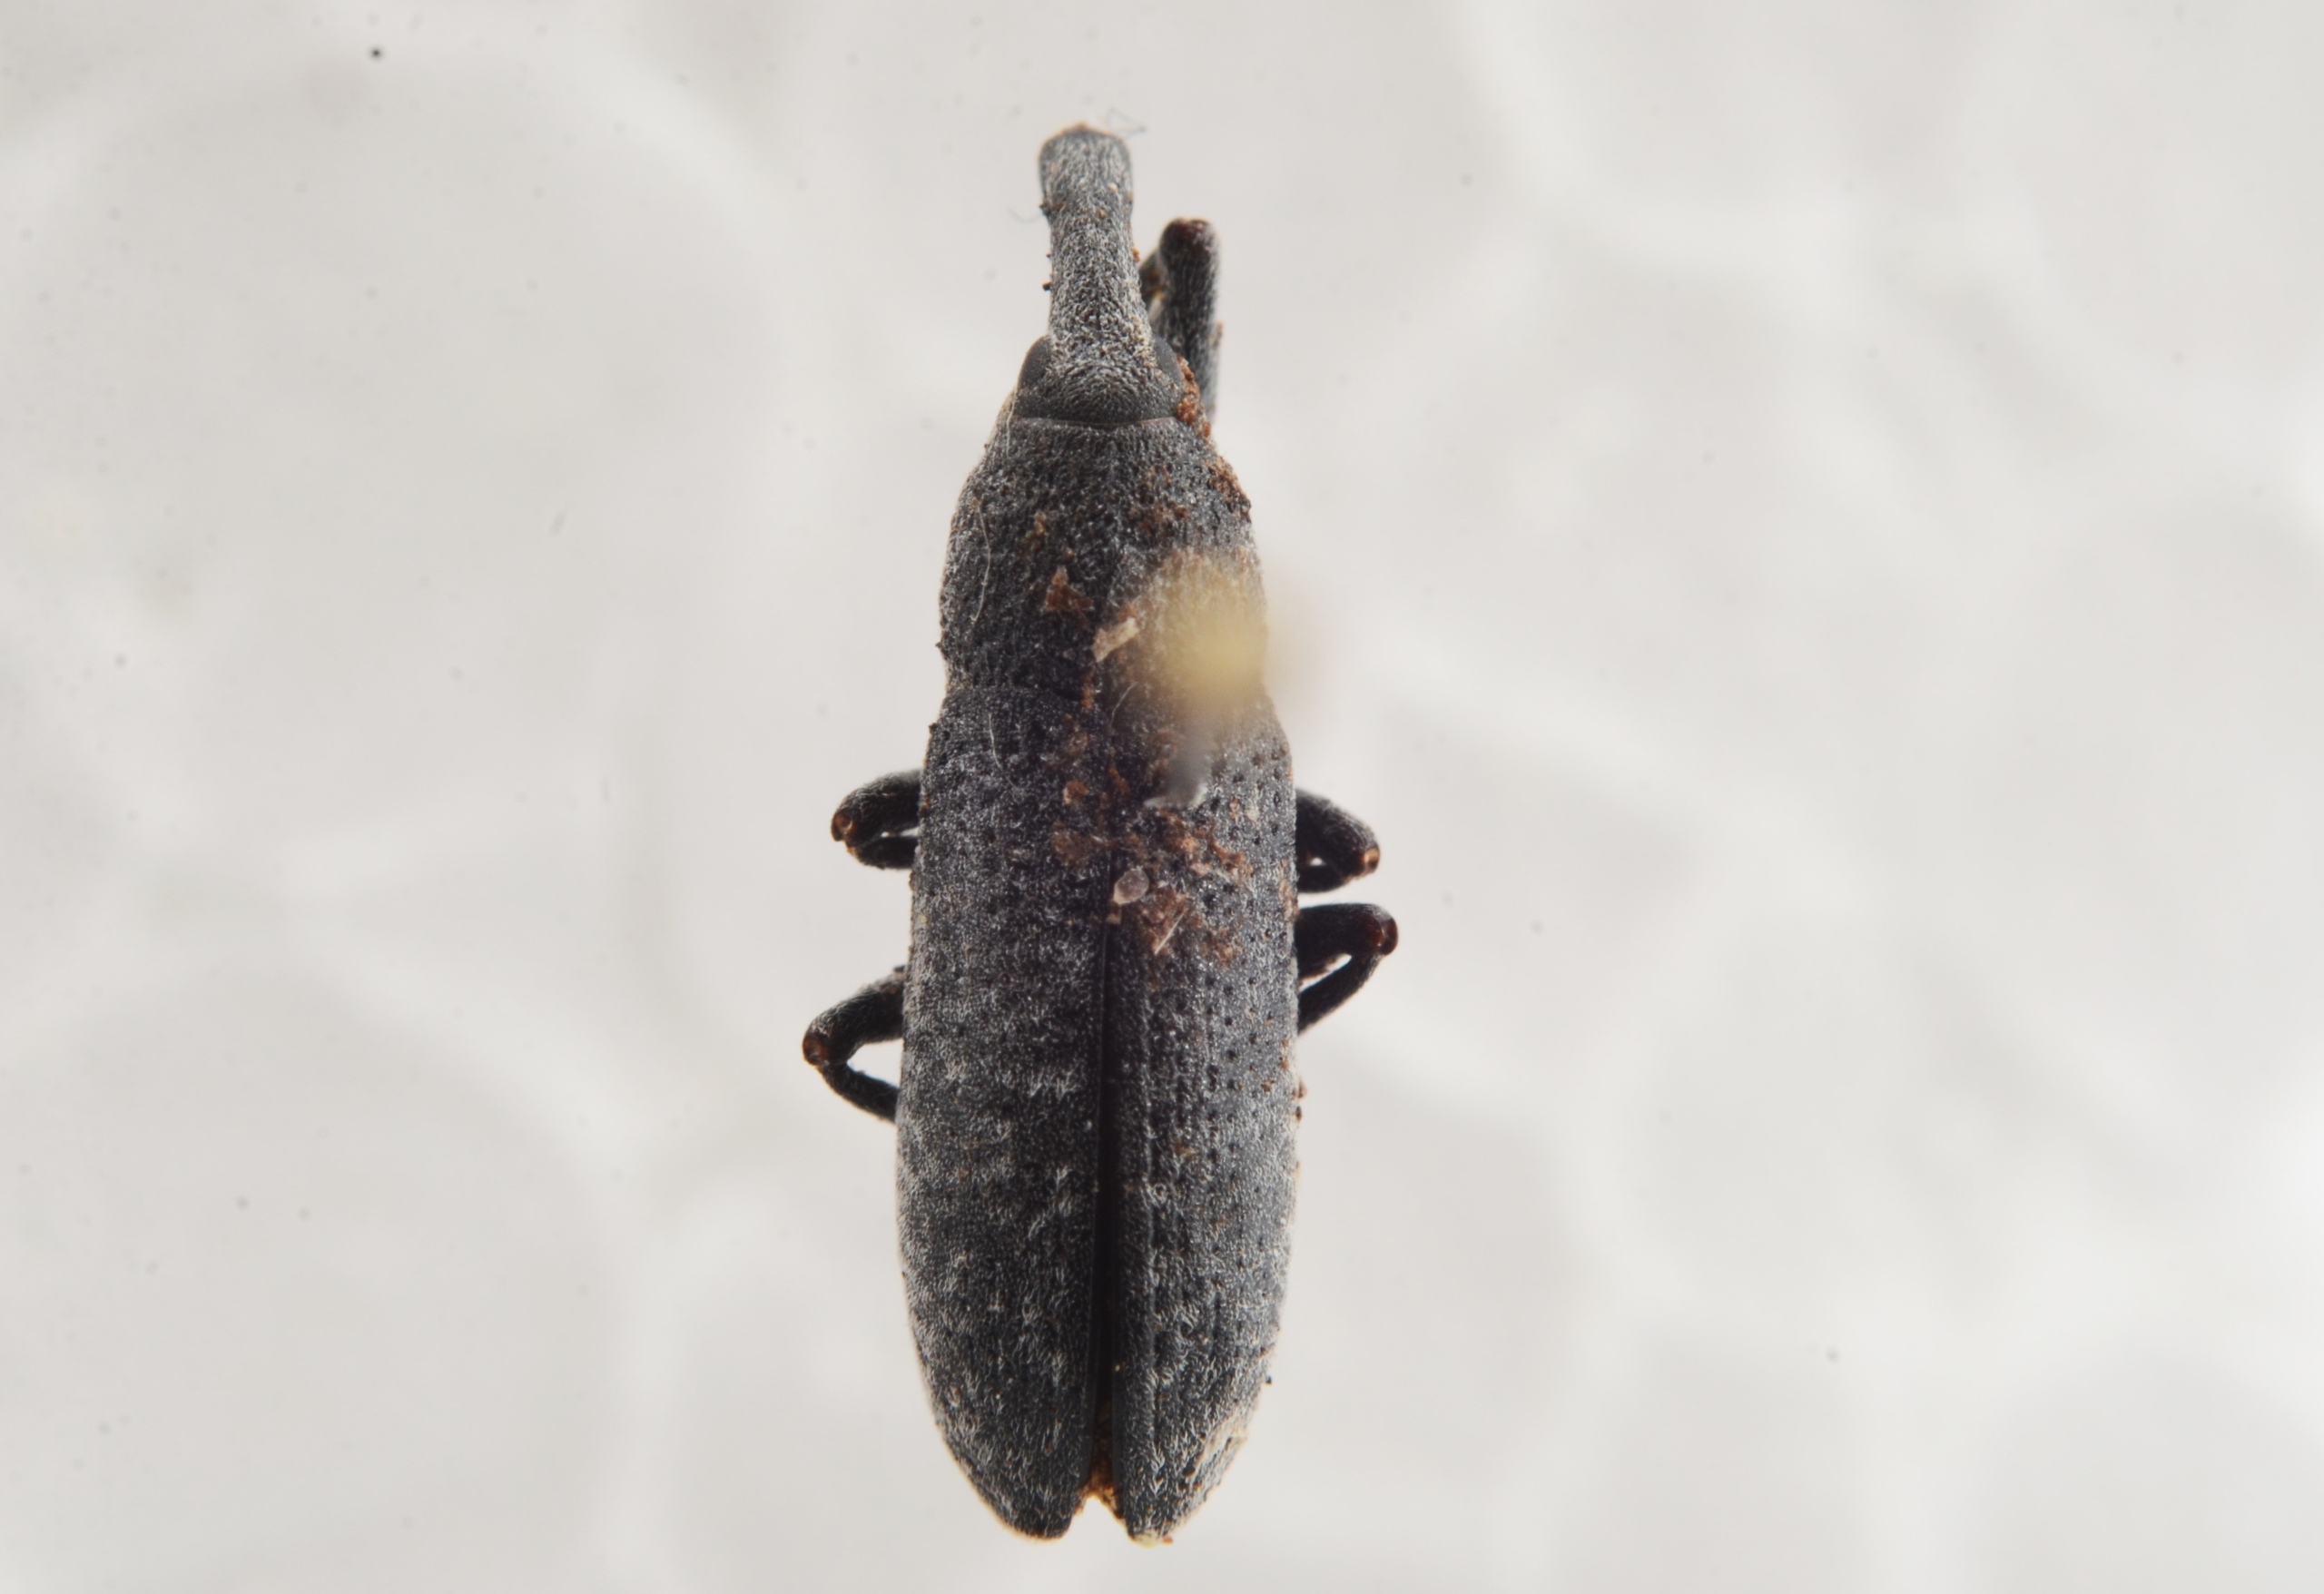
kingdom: Animalia
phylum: Arthropoda
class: Insecta
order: Coleoptera
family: Curculionidae
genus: Lixus
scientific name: Lixus bardanae
